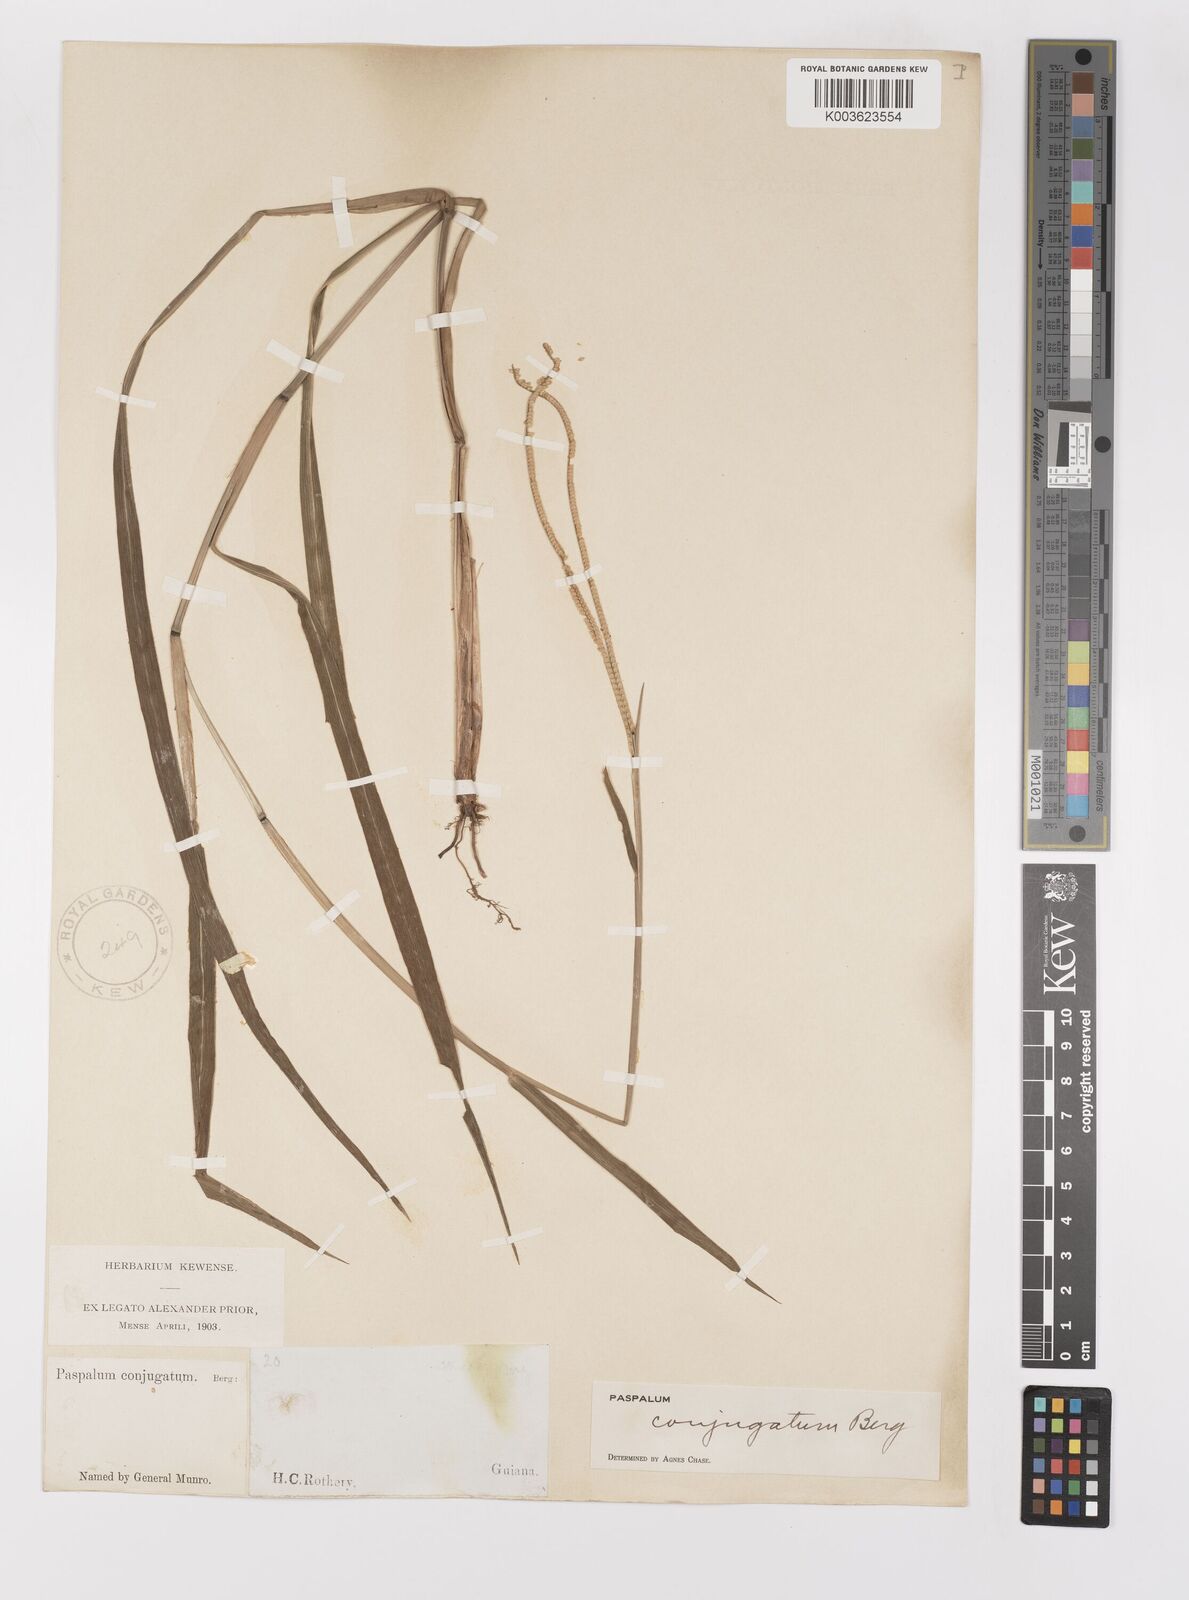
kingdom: Plantae
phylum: Tracheophyta
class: Liliopsida
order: Poales
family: Poaceae
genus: Paspalum
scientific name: Paspalum conjugatum
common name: Hilograss
